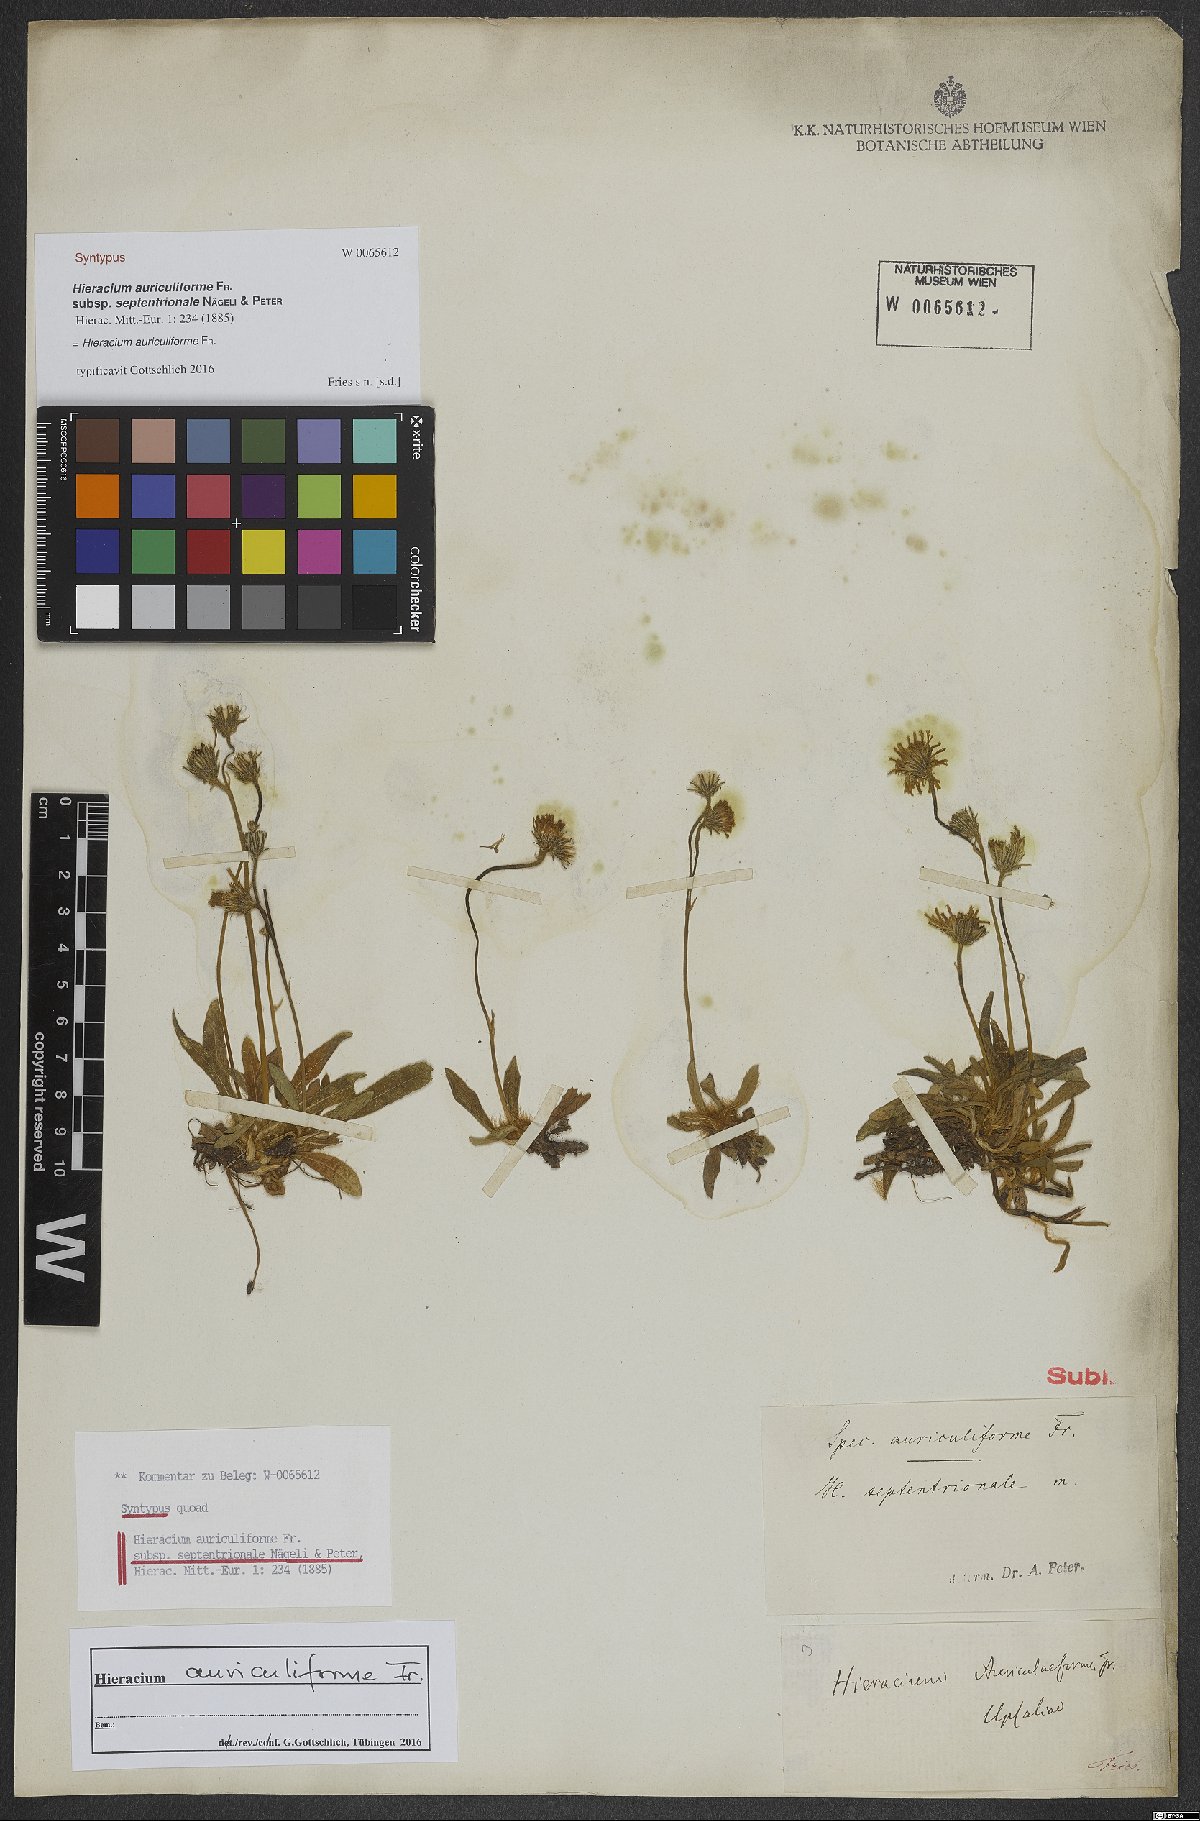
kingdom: Plantae
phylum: Tracheophyta
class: Magnoliopsida
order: Asterales
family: Asteraceae
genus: Pilosella
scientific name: Pilosella auriculiformis
